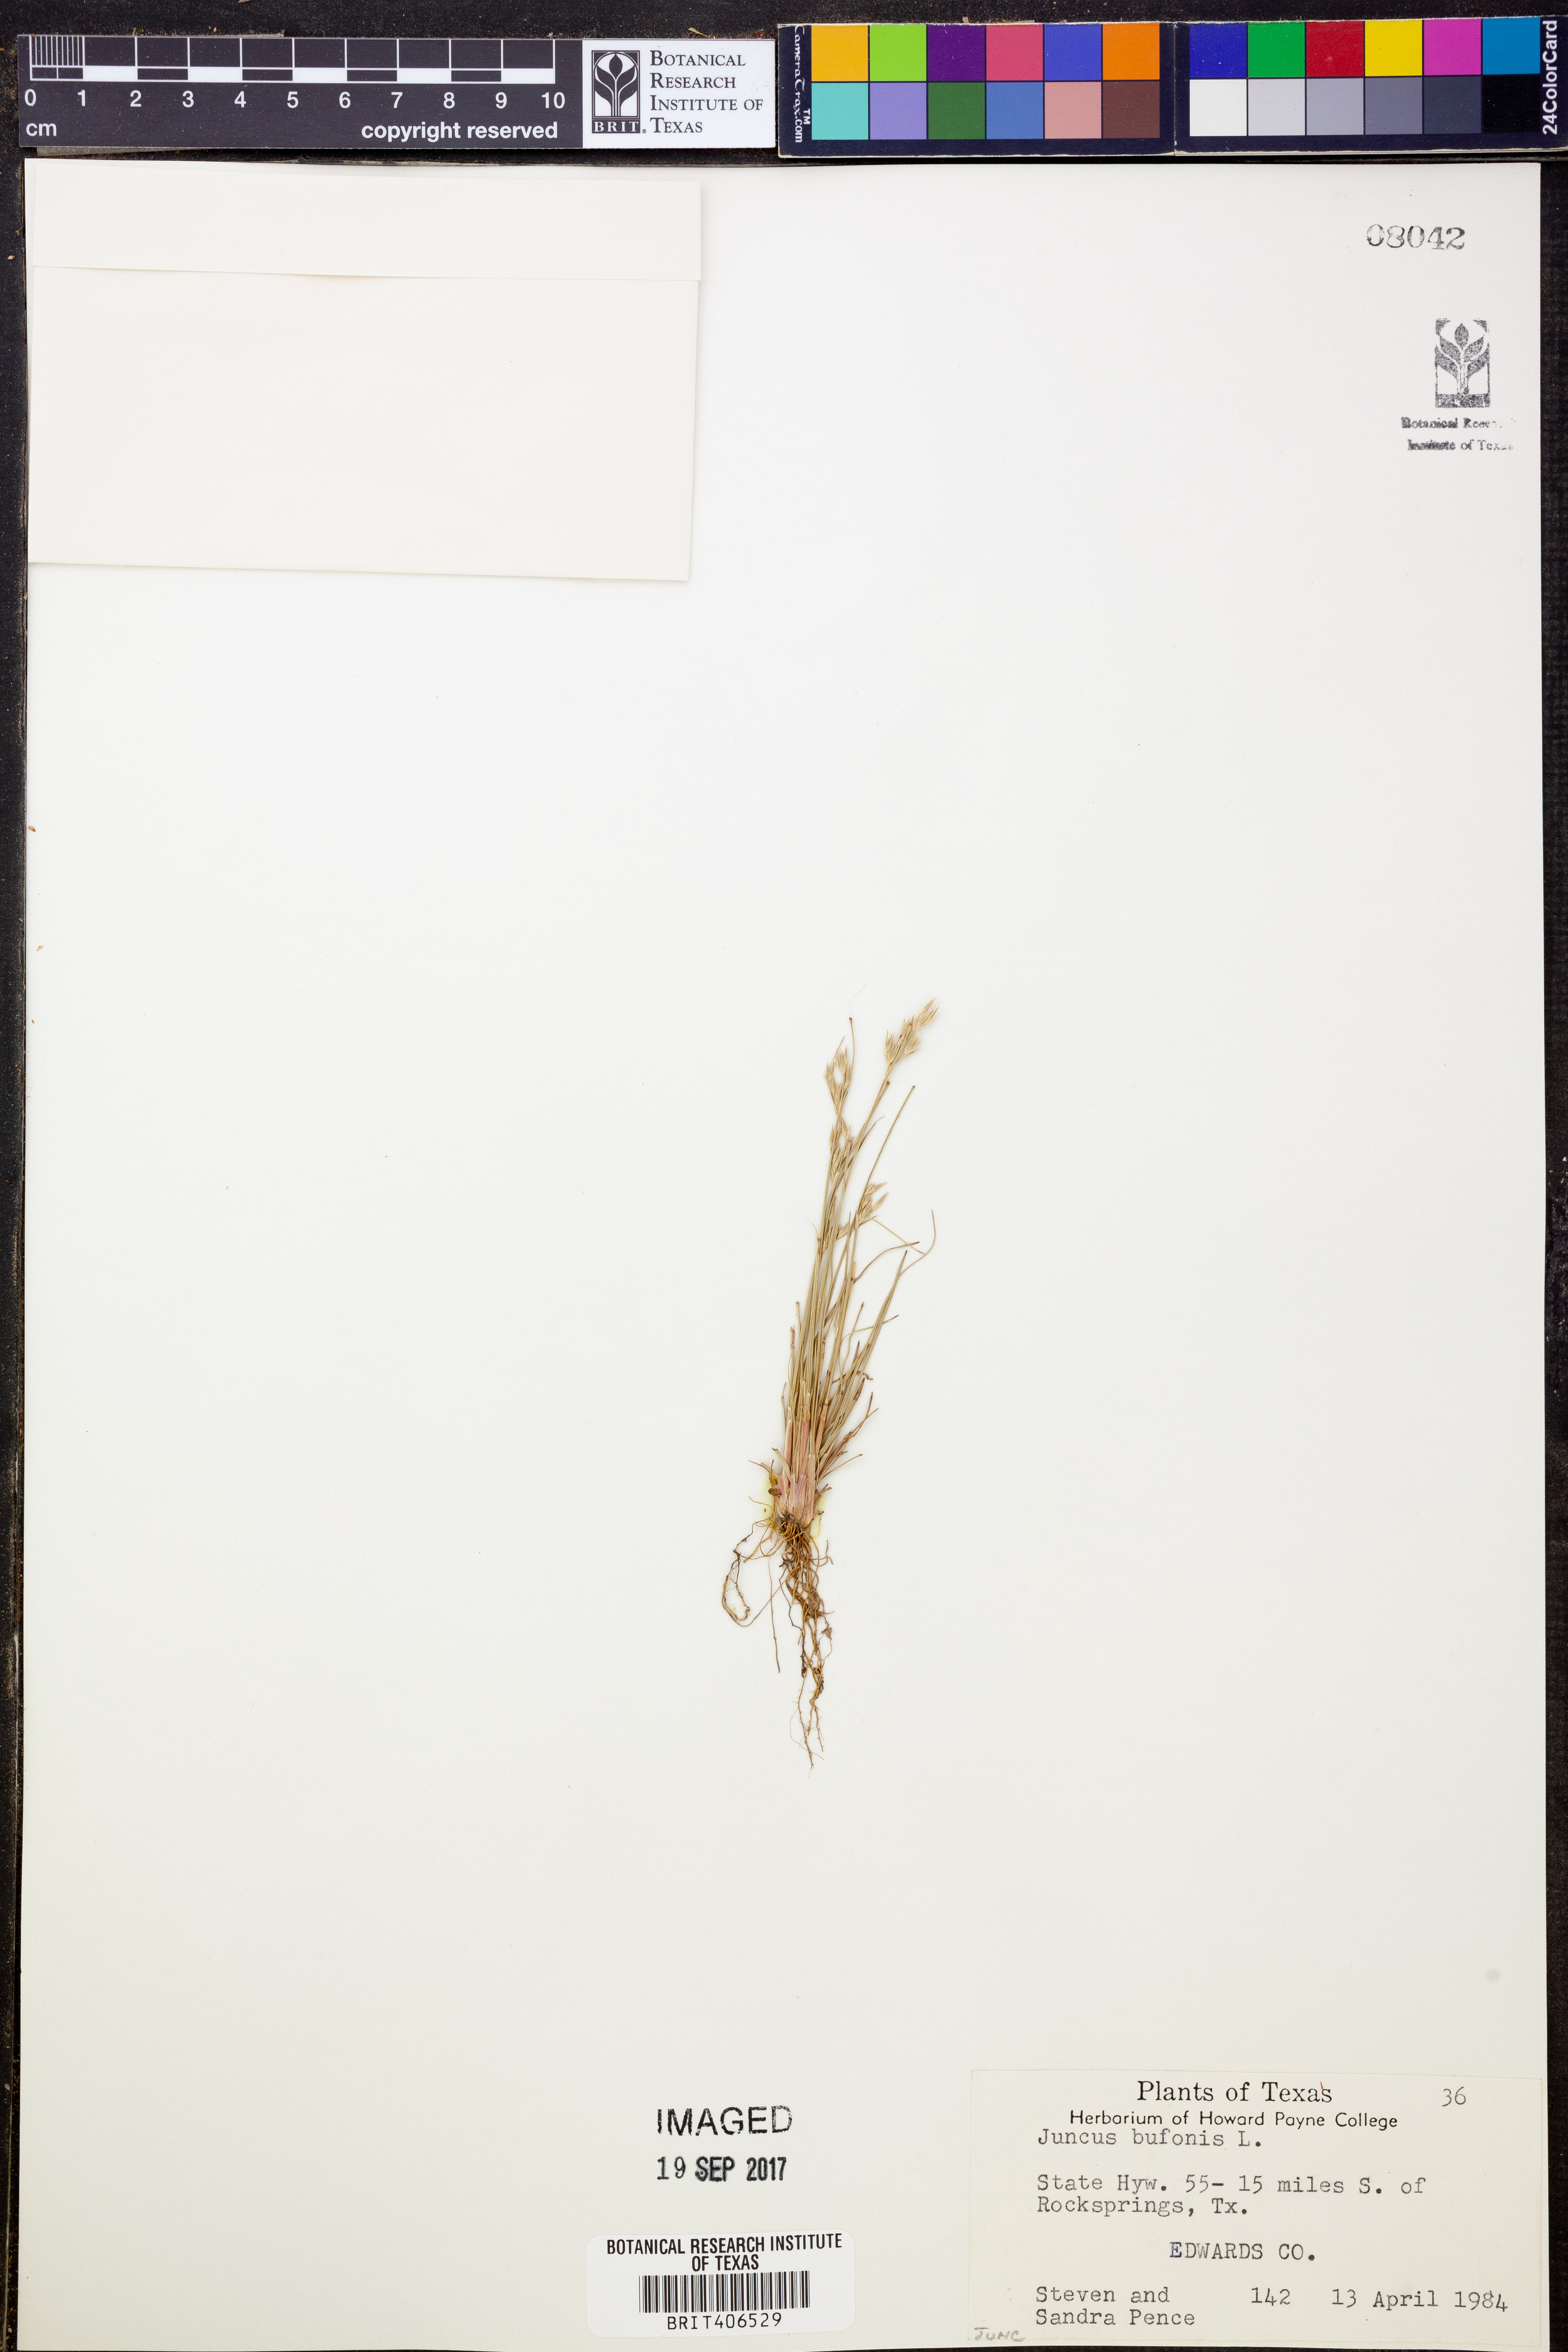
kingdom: Plantae
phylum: Tracheophyta
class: Liliopsida
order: Poales
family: Juncaceae
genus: Juncus
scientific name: Juncus bufonius
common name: Toad rush
